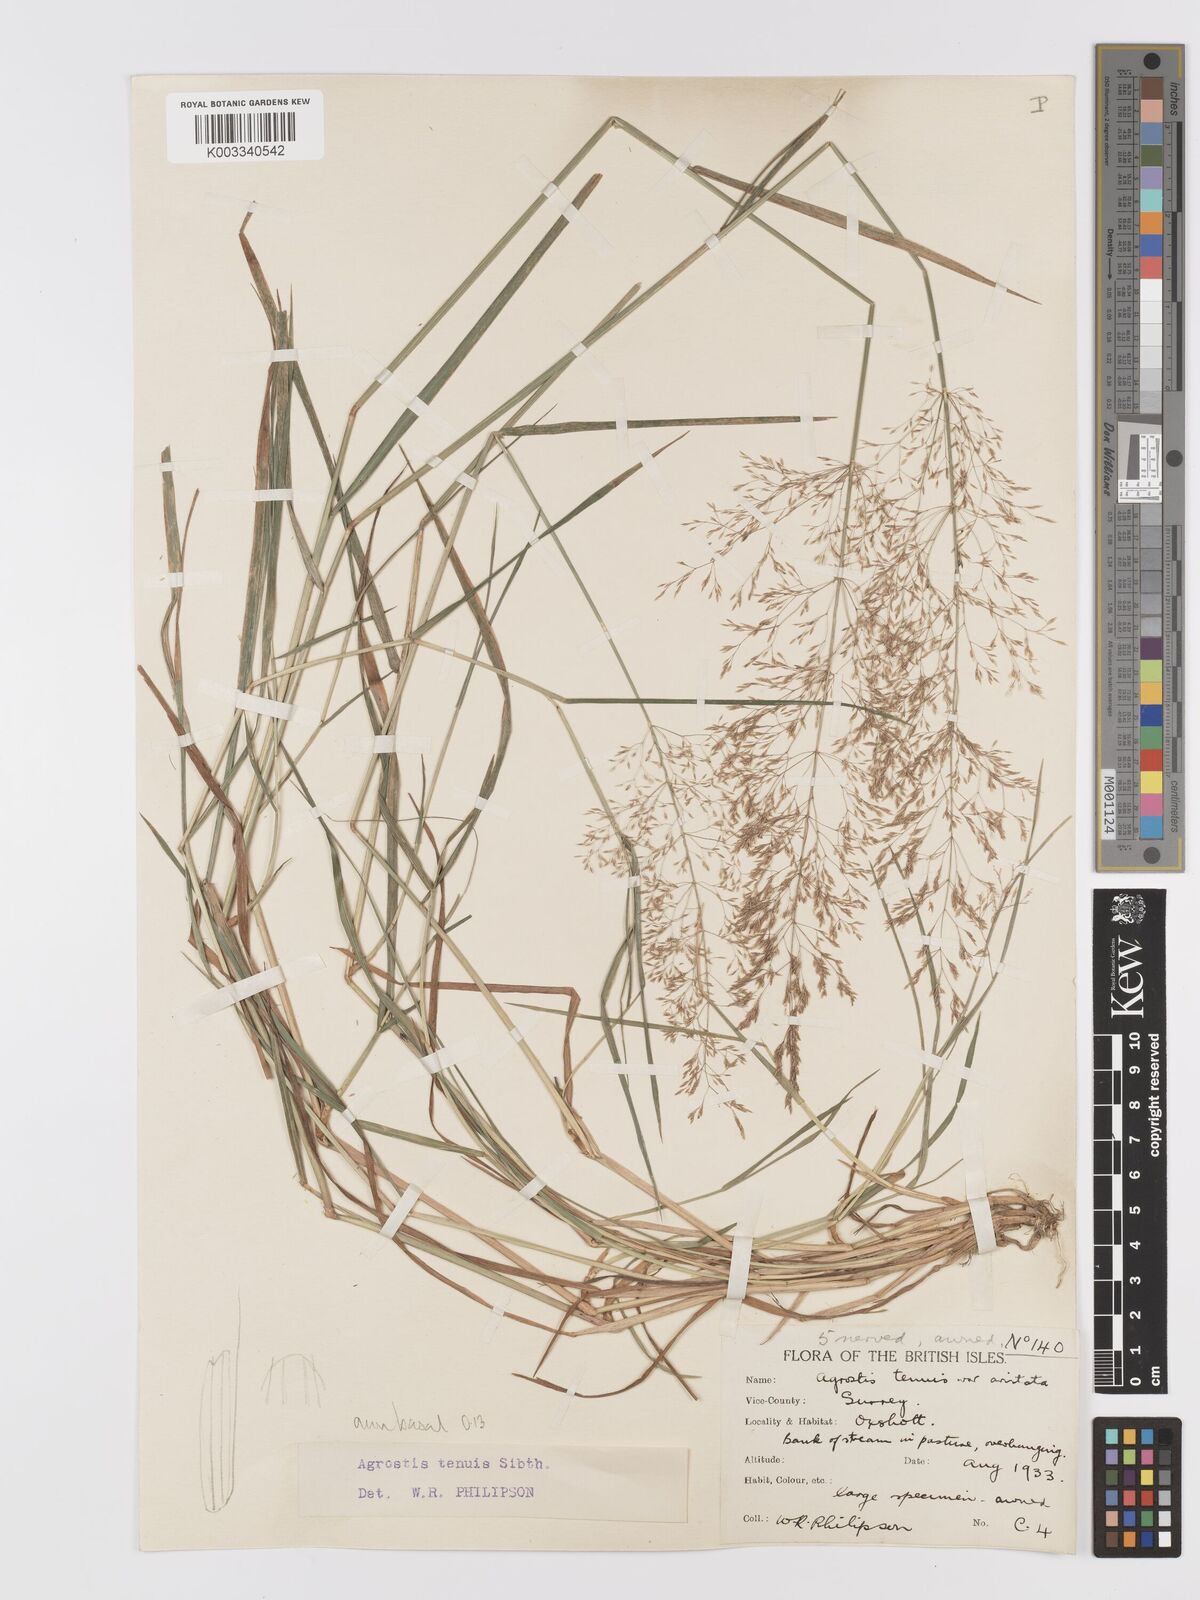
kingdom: Plantae
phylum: Tracheophyta
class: Liliopsida
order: Poales
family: Poaceae
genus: Agrostis
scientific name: Agrostis capillaris
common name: Colonial bentgrass
